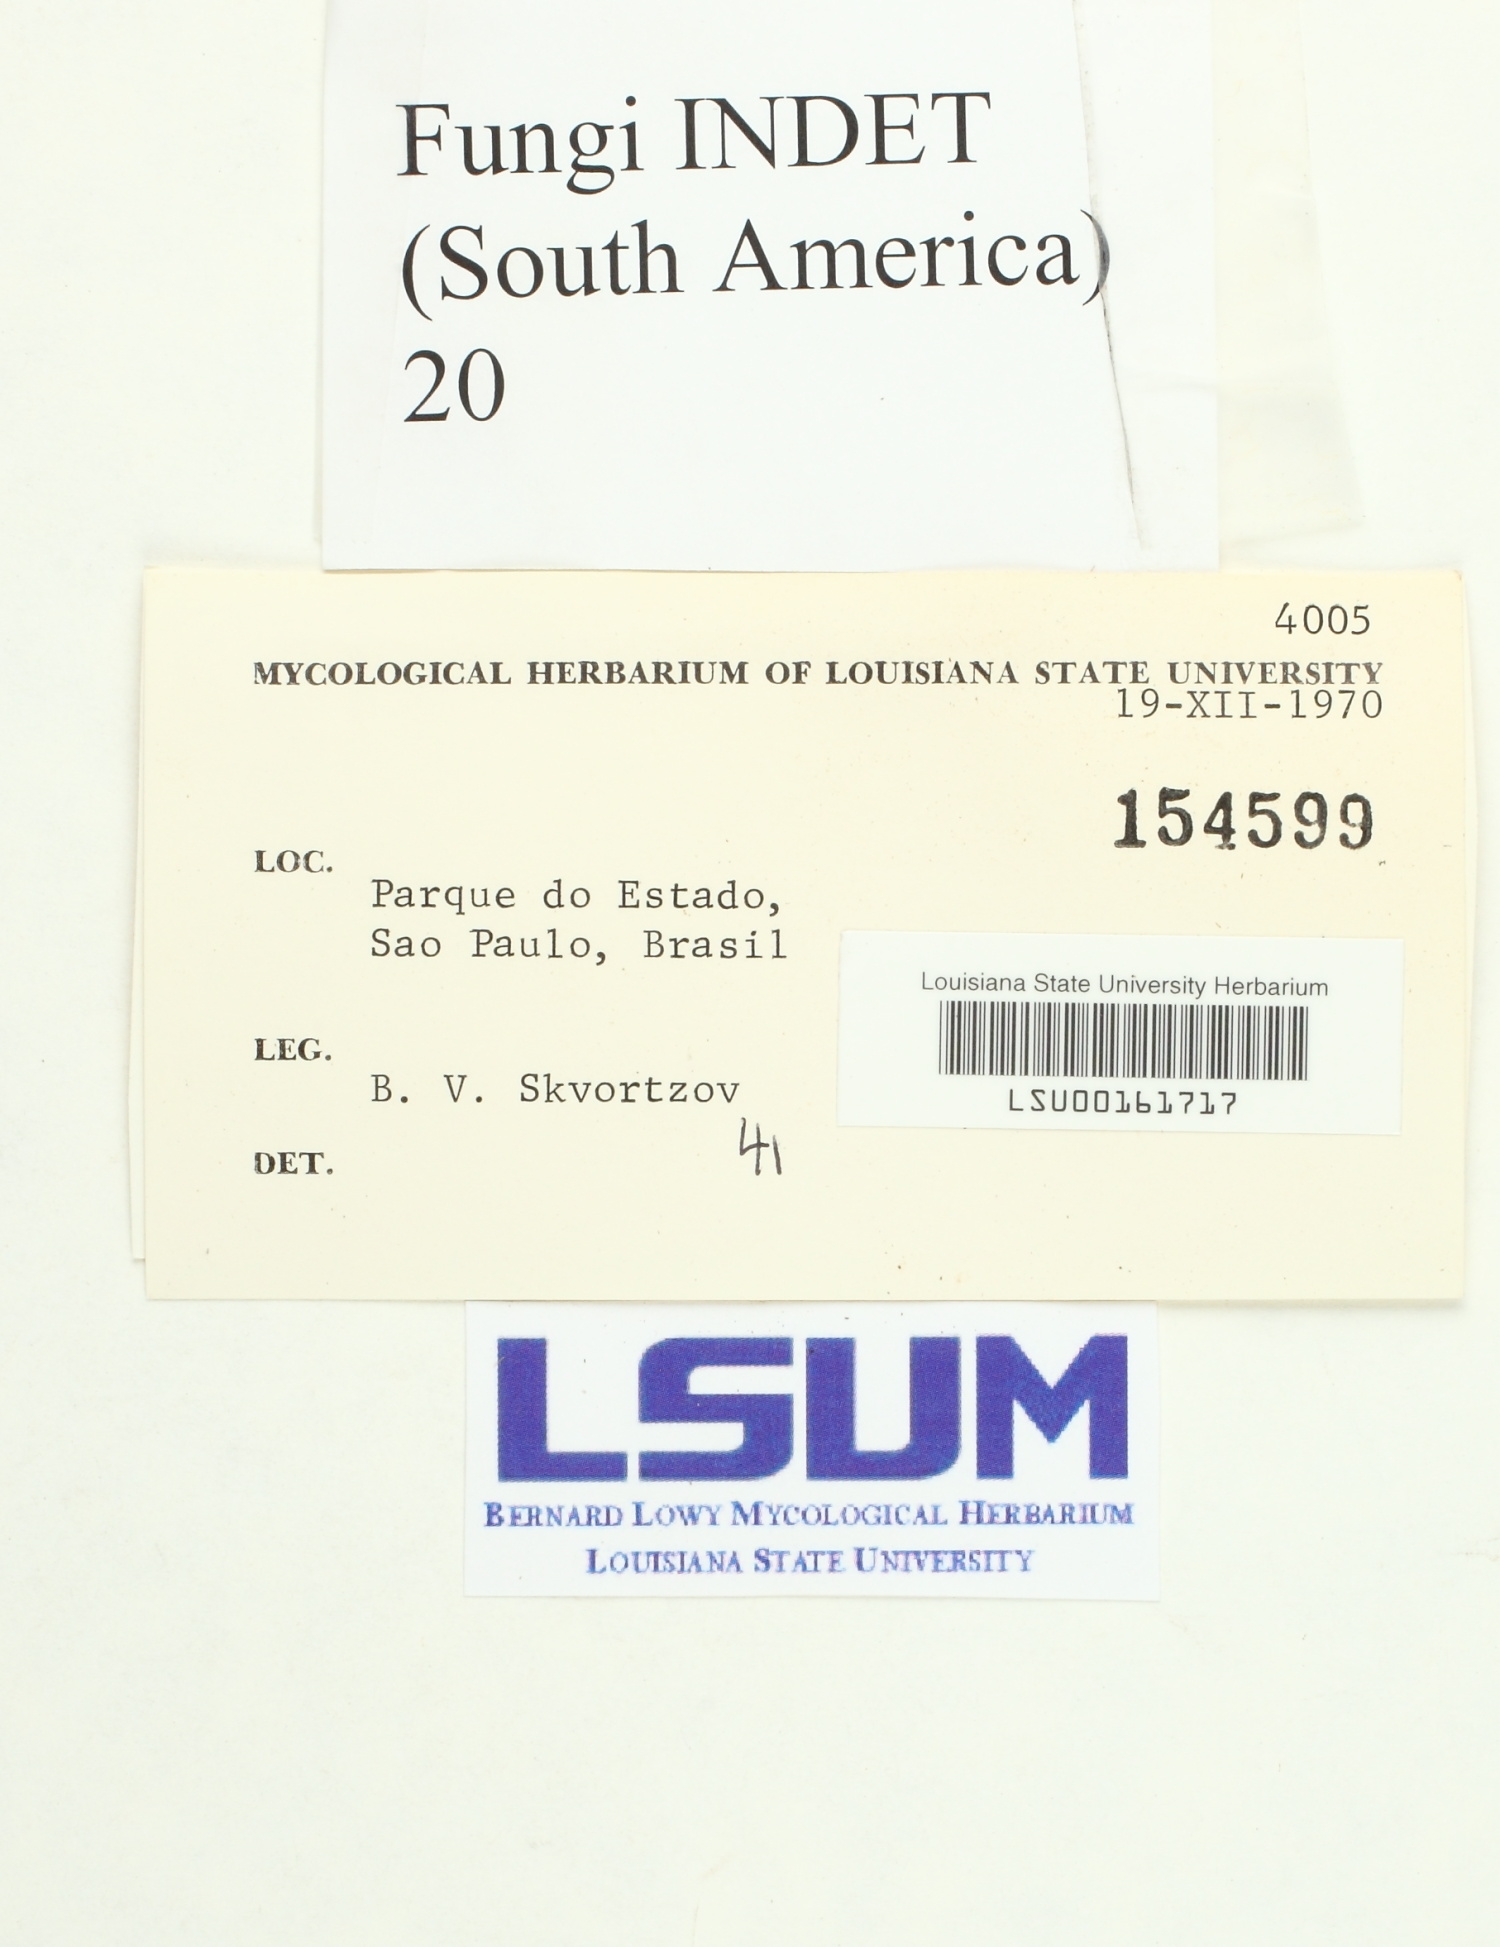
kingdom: Fungi
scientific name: Fungi
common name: Fungi
